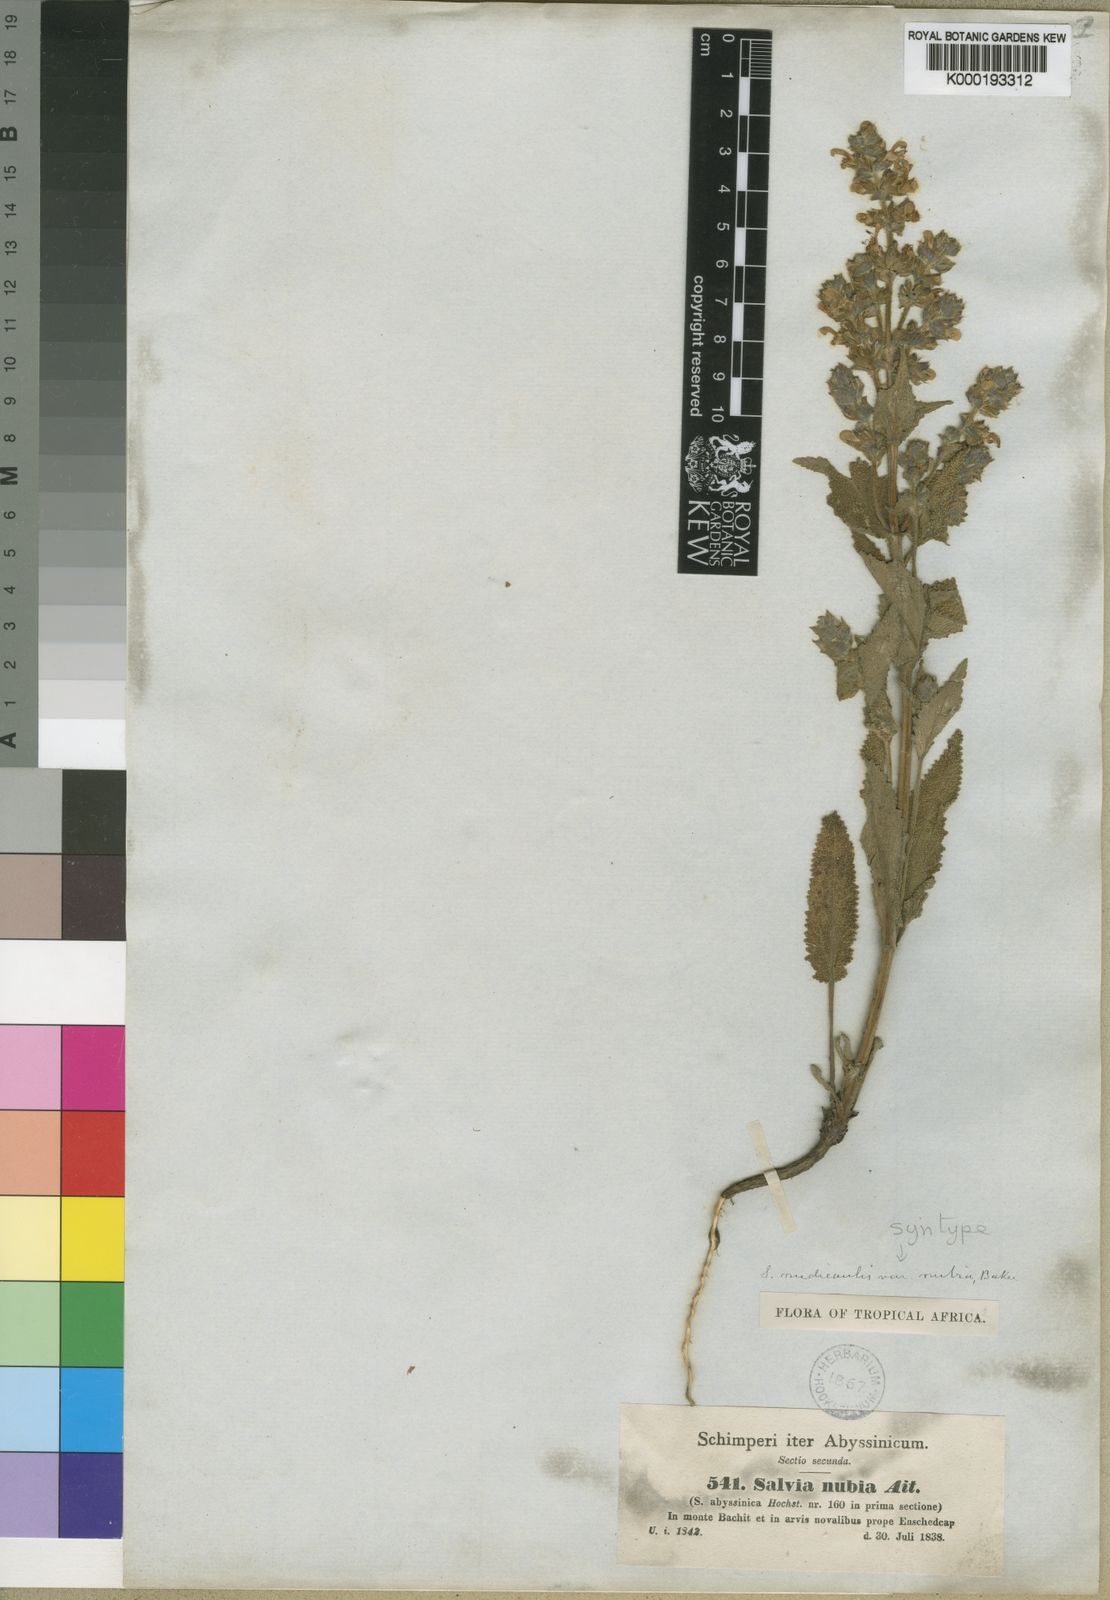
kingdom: Plantae
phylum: Tracheophyta
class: Magnoliopsida
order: Lamiales
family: Lamiaceae
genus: Salvia
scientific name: Salvia merjamie
